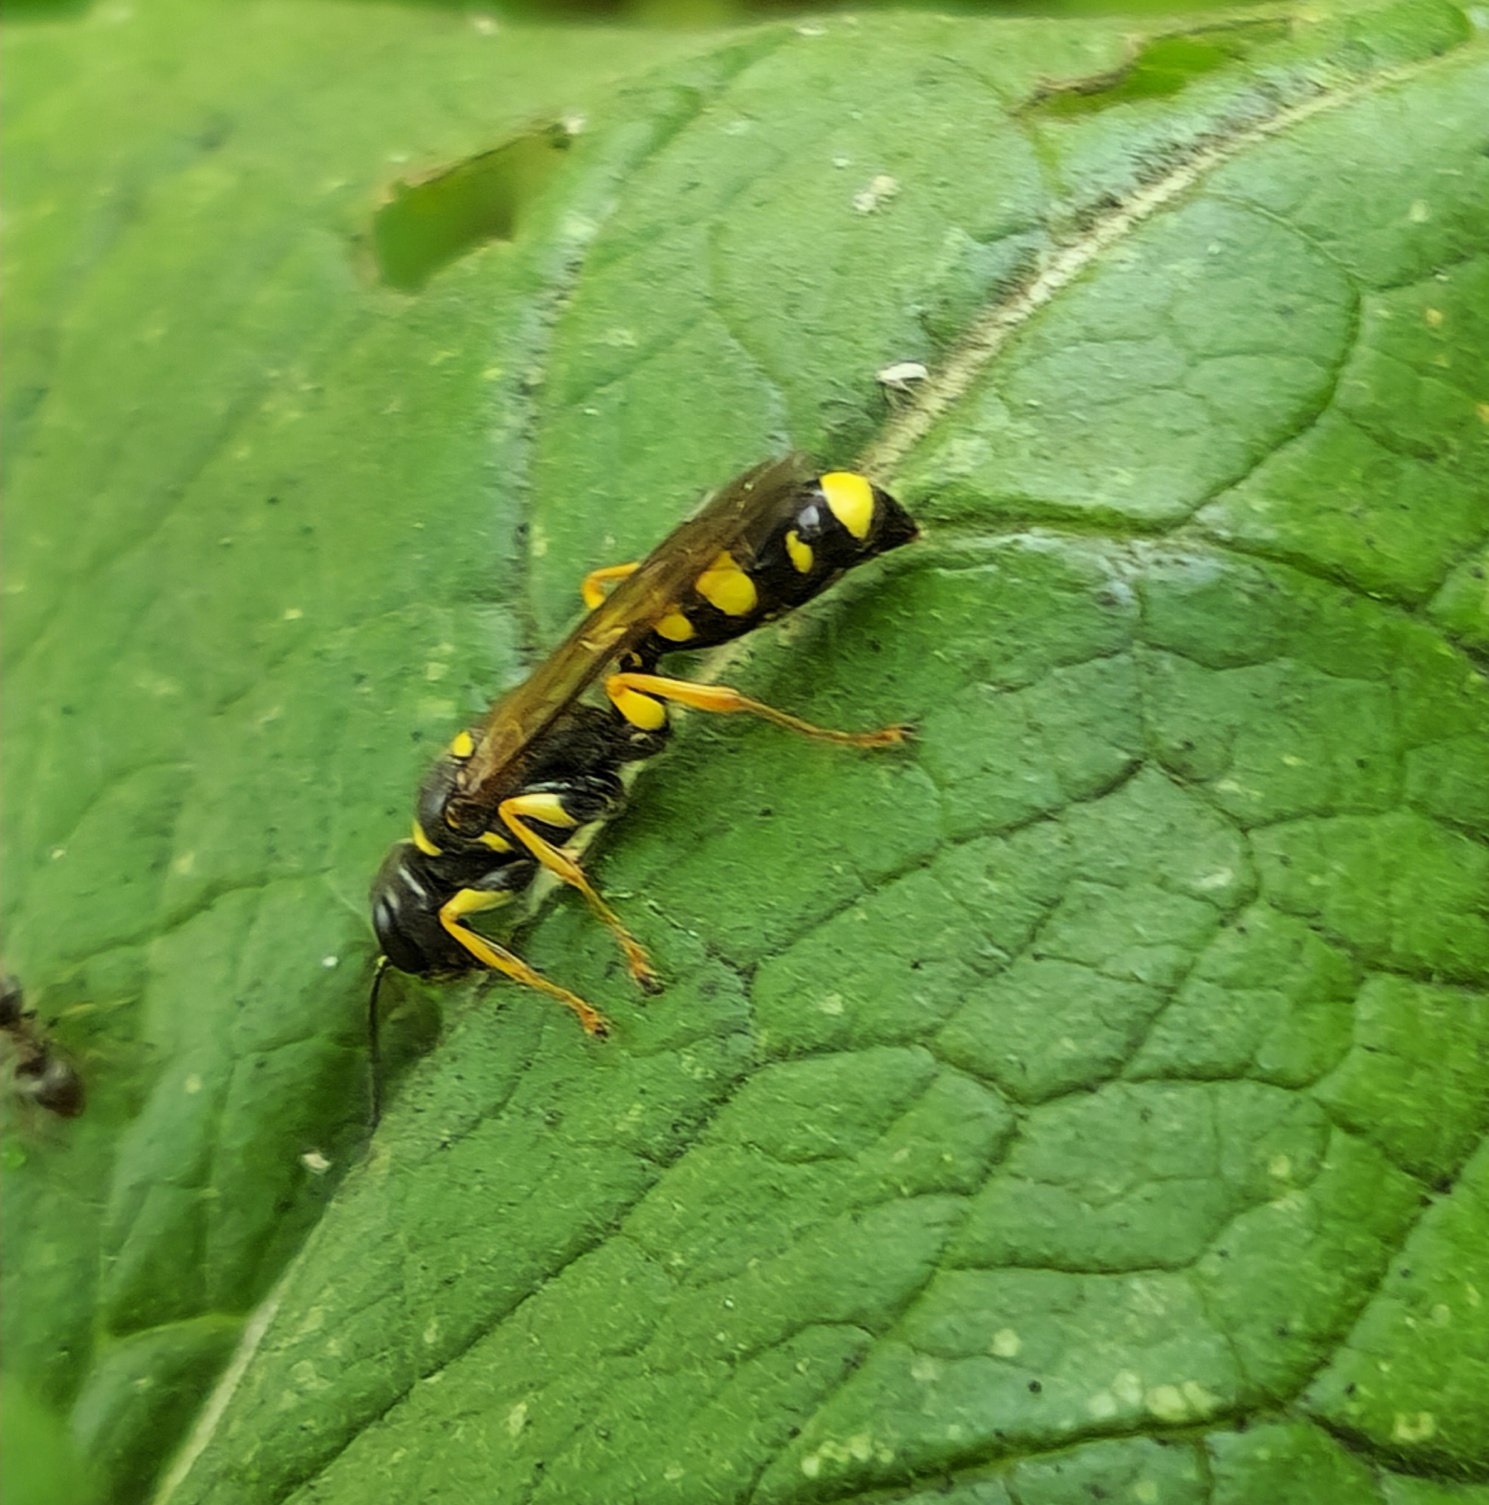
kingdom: Animalia
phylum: Arthropoda
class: Insecta
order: Hymenoptera
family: Crabronidae
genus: Mellinus
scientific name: Mellinus arvensis
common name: Efterårsgravehveps
